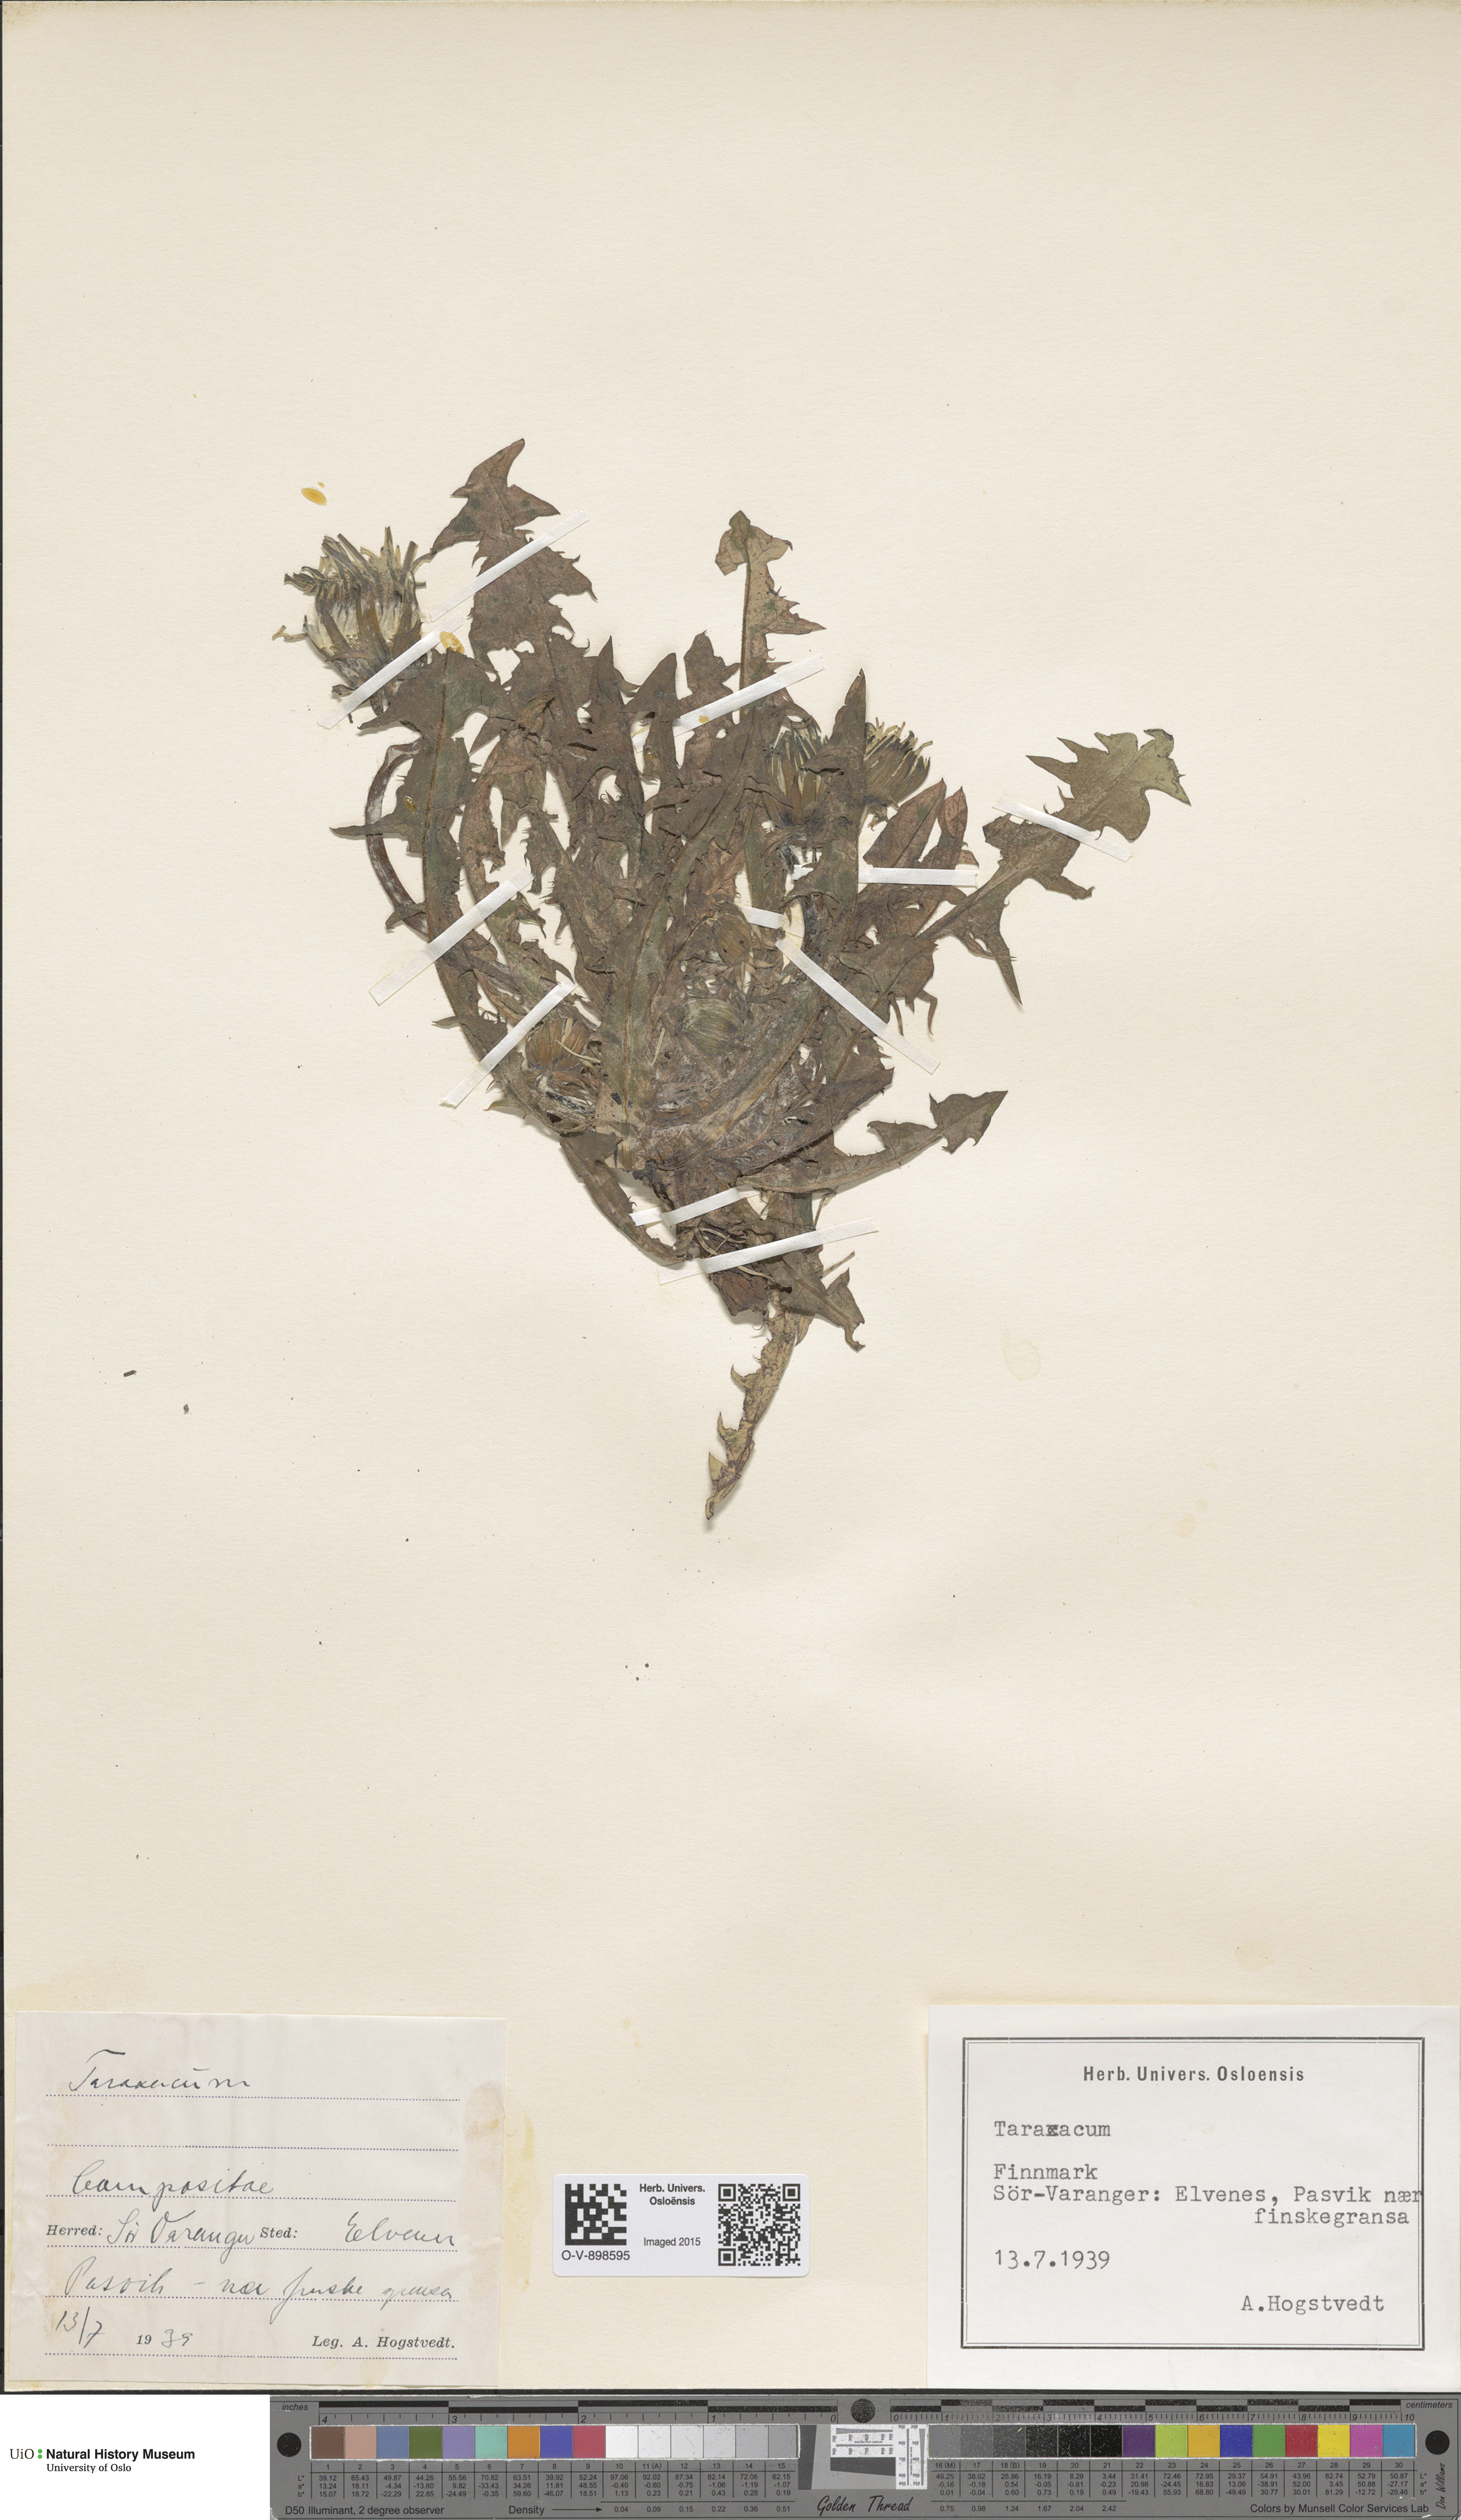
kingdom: Plantae
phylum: Tracheophyta
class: Magnoliopsida
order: Asterales
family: Asteraceae
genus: Taraxacum
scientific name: Taraxacum
